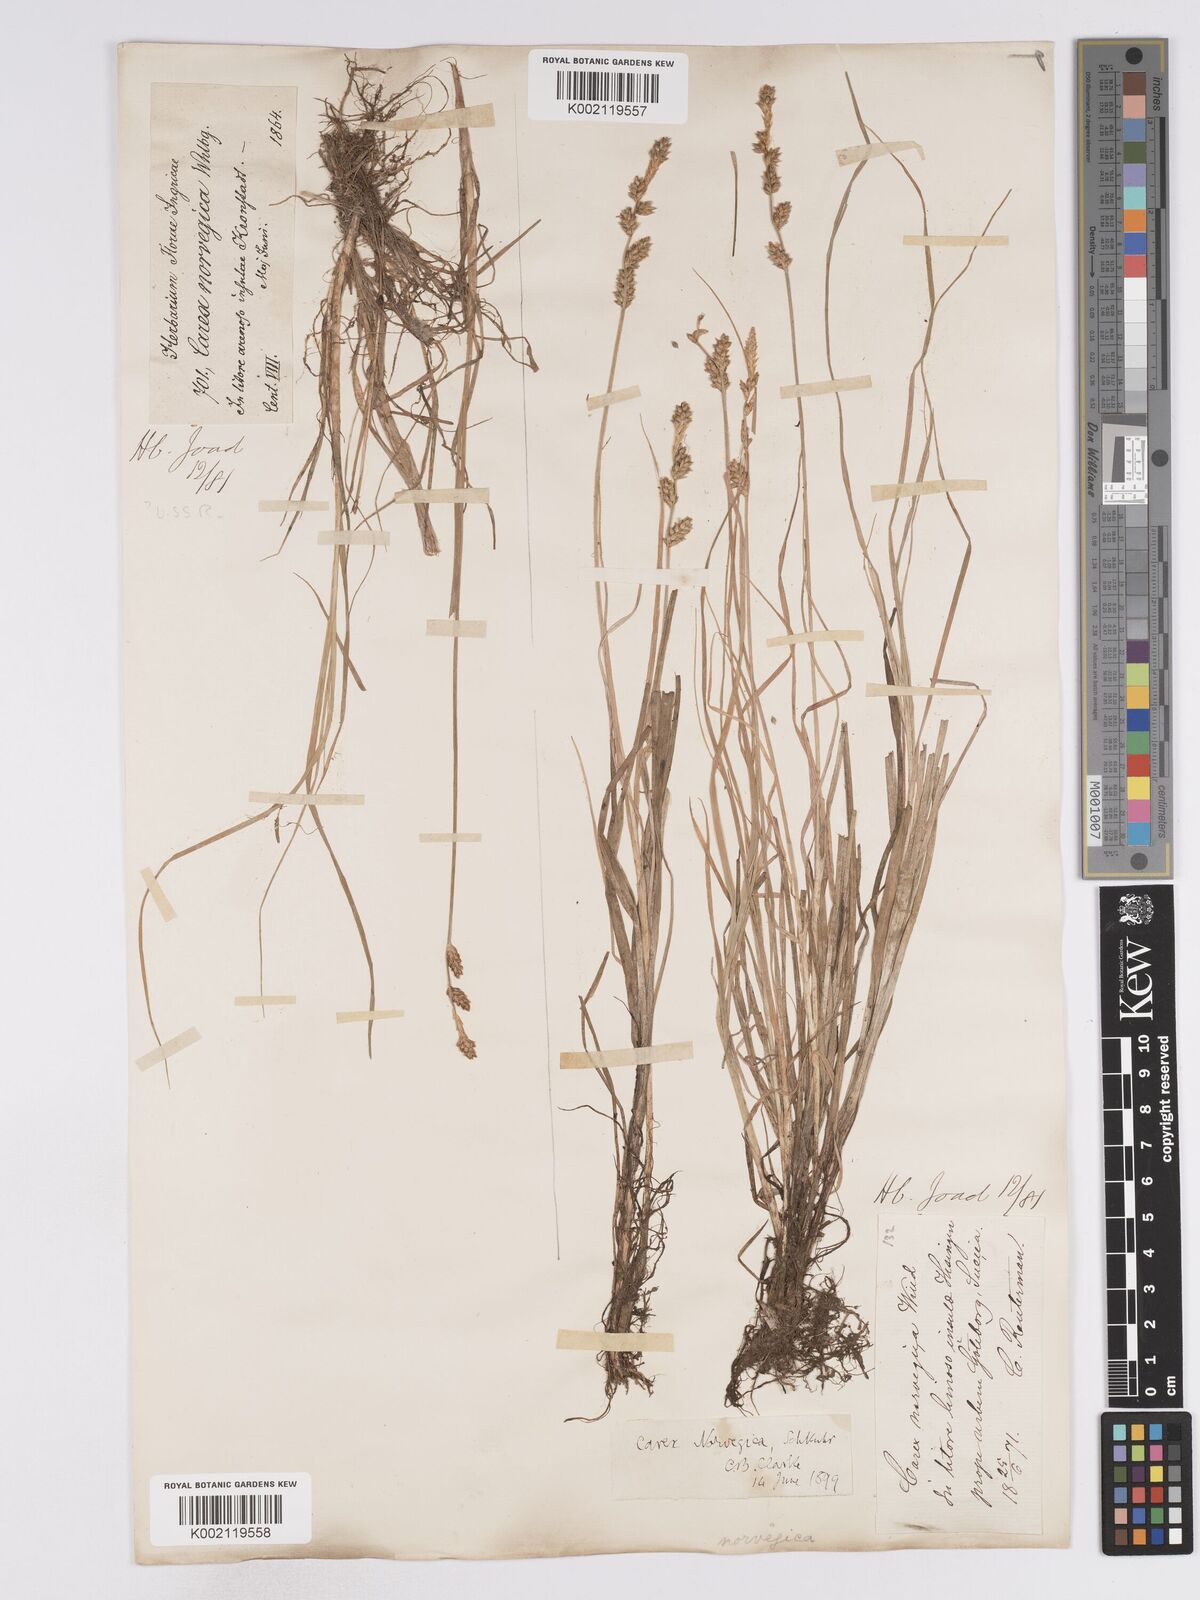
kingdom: Plantae
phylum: Tracheophyta
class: Liliopsida
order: Poales
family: Cyperaceae
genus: Carex
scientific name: Carex mackenziei
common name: Mackenzie's sedge
